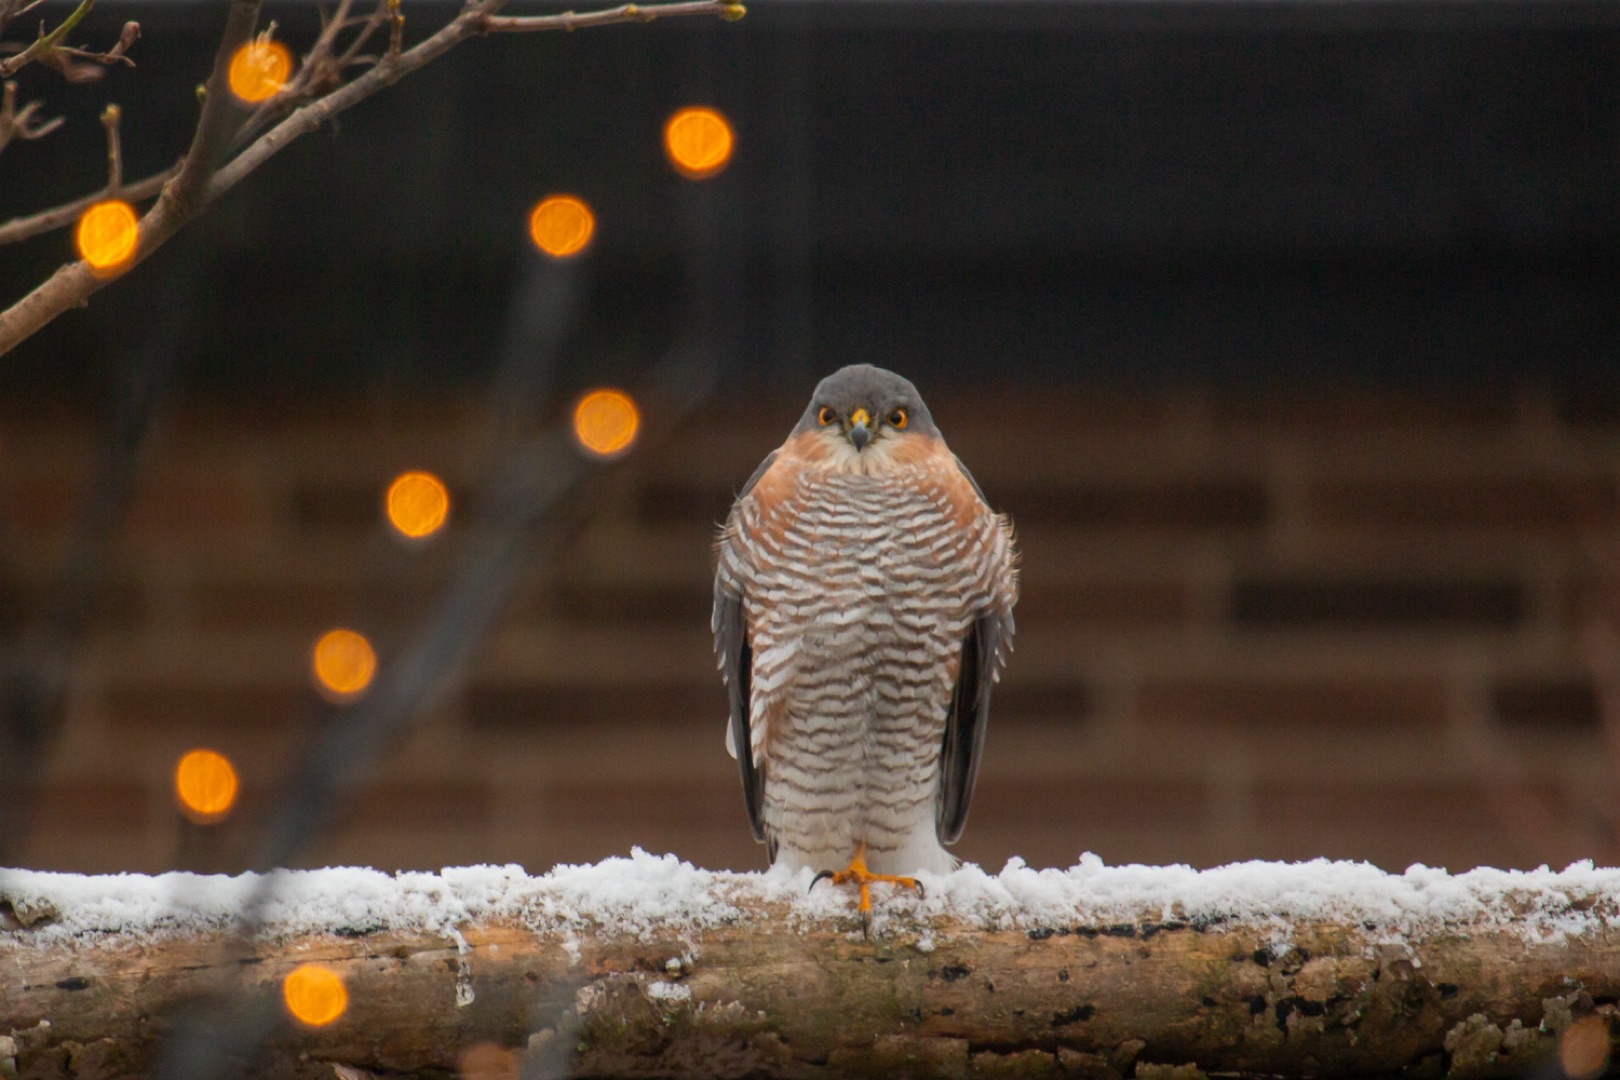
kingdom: Animalia
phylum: Chordata
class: Aves
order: Accipitriformes
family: Accipitridae
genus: Accipiter
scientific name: Accipiter nisus
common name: Spurvehøg
